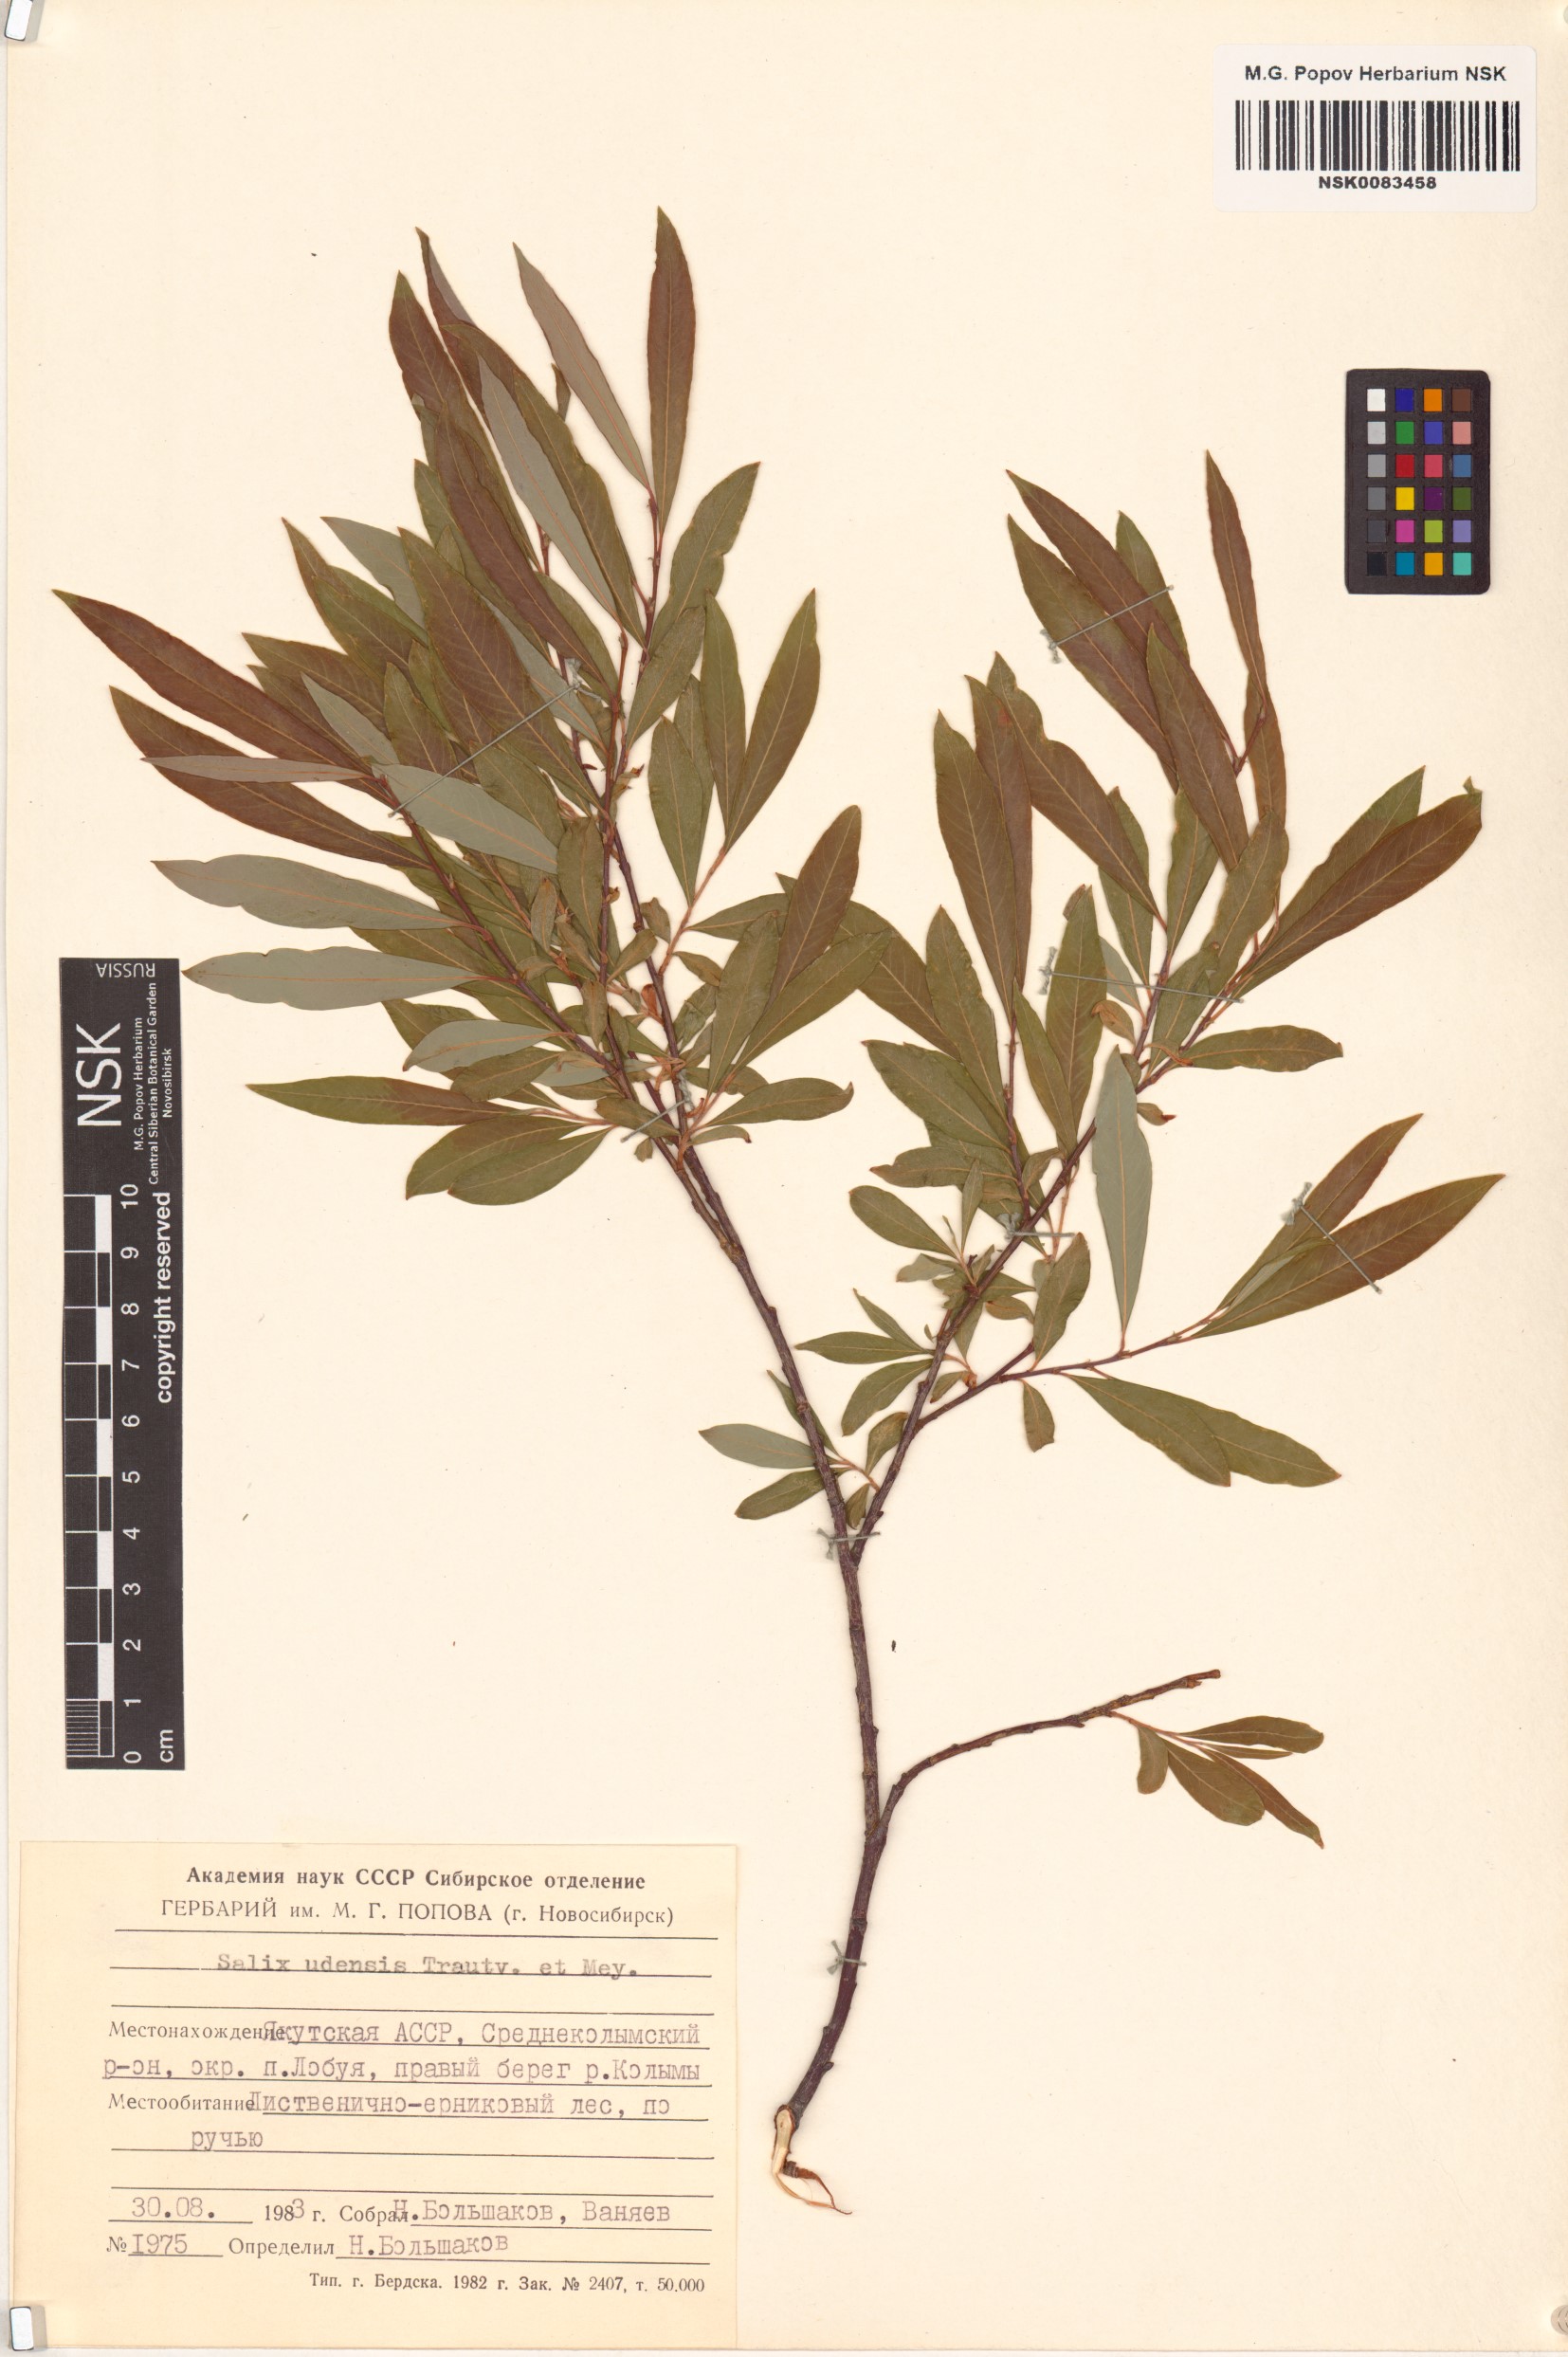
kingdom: Plantae
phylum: Tracheophyta
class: Magnoliopsida
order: Malpighiales
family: Salicaceae
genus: Salix
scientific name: Salix udensis
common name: Sachalin willow
